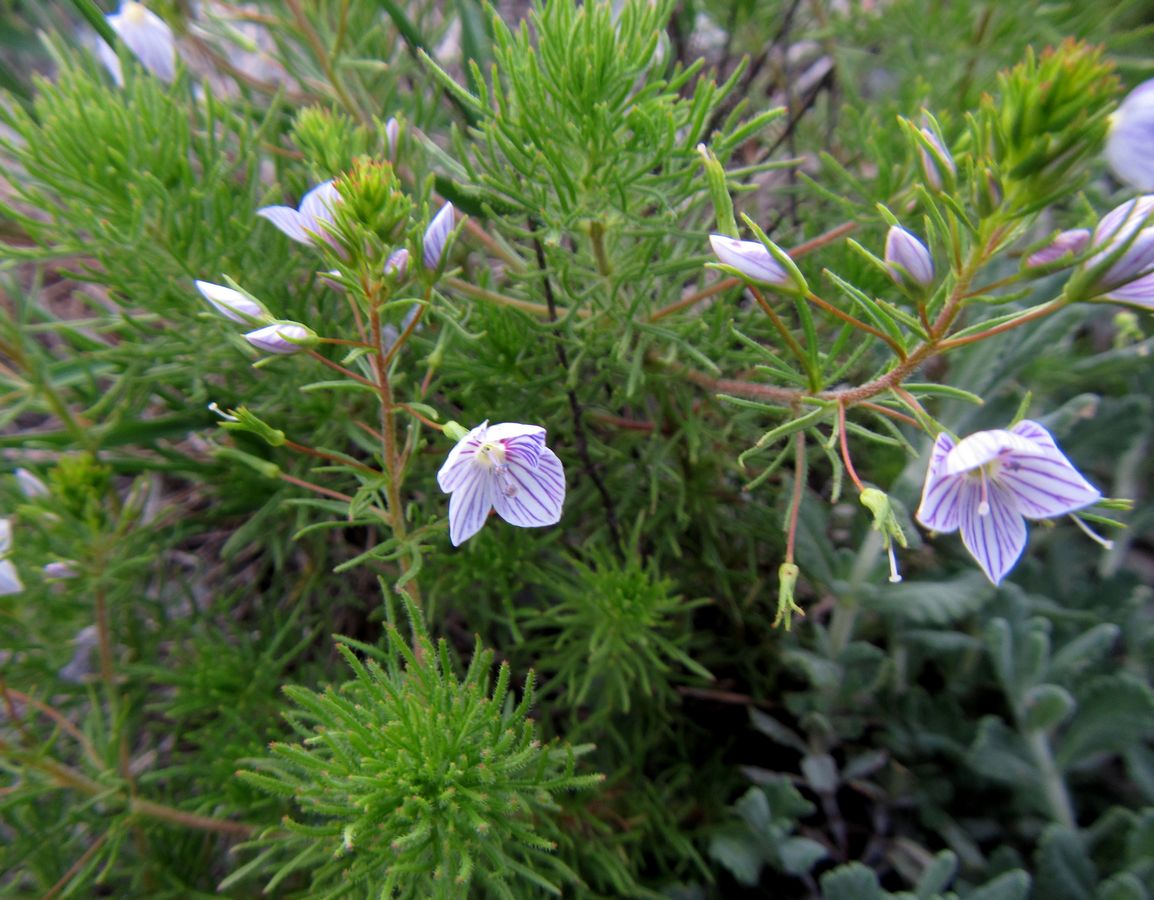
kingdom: Plantae
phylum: Tracheophyta
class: Magnoliopsida
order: Lamiales
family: Plantaginaceae
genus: Veronica
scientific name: Veronica filifolia
